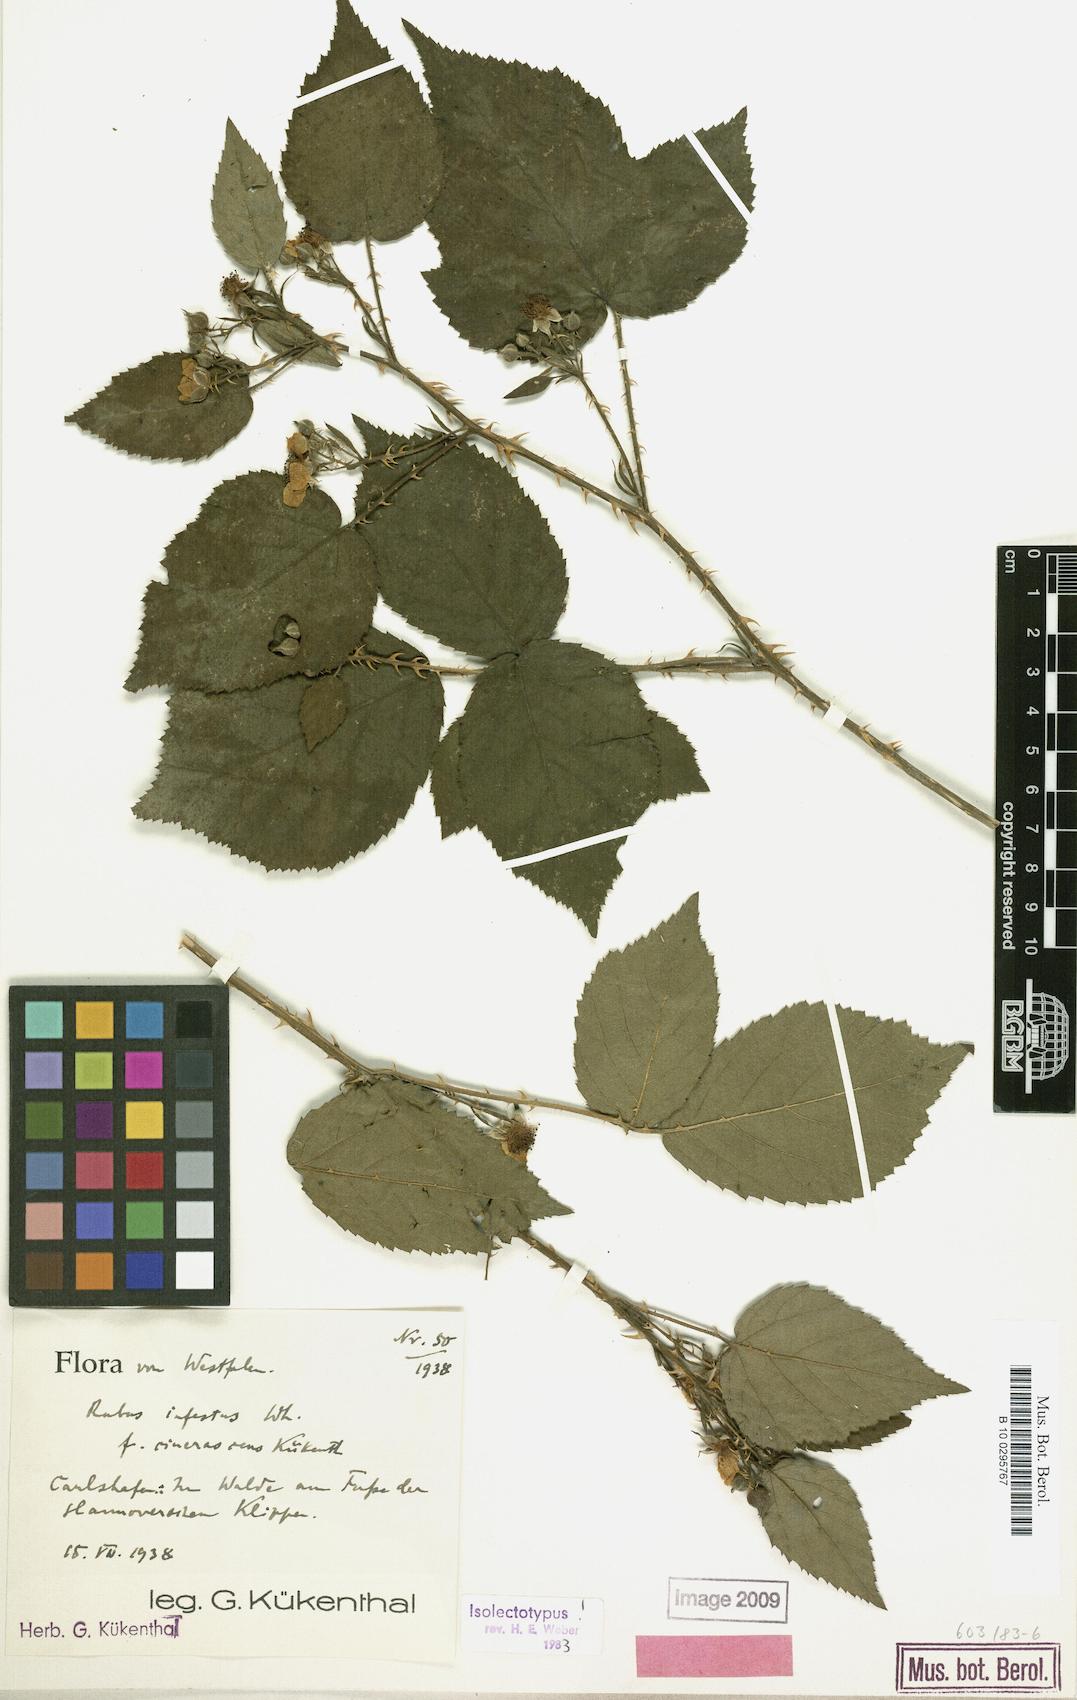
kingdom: Plantae
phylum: Tracheophyta
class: Magnoliopsida
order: Rosales
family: Rosaceae
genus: Rubus
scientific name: Rubus infestus
